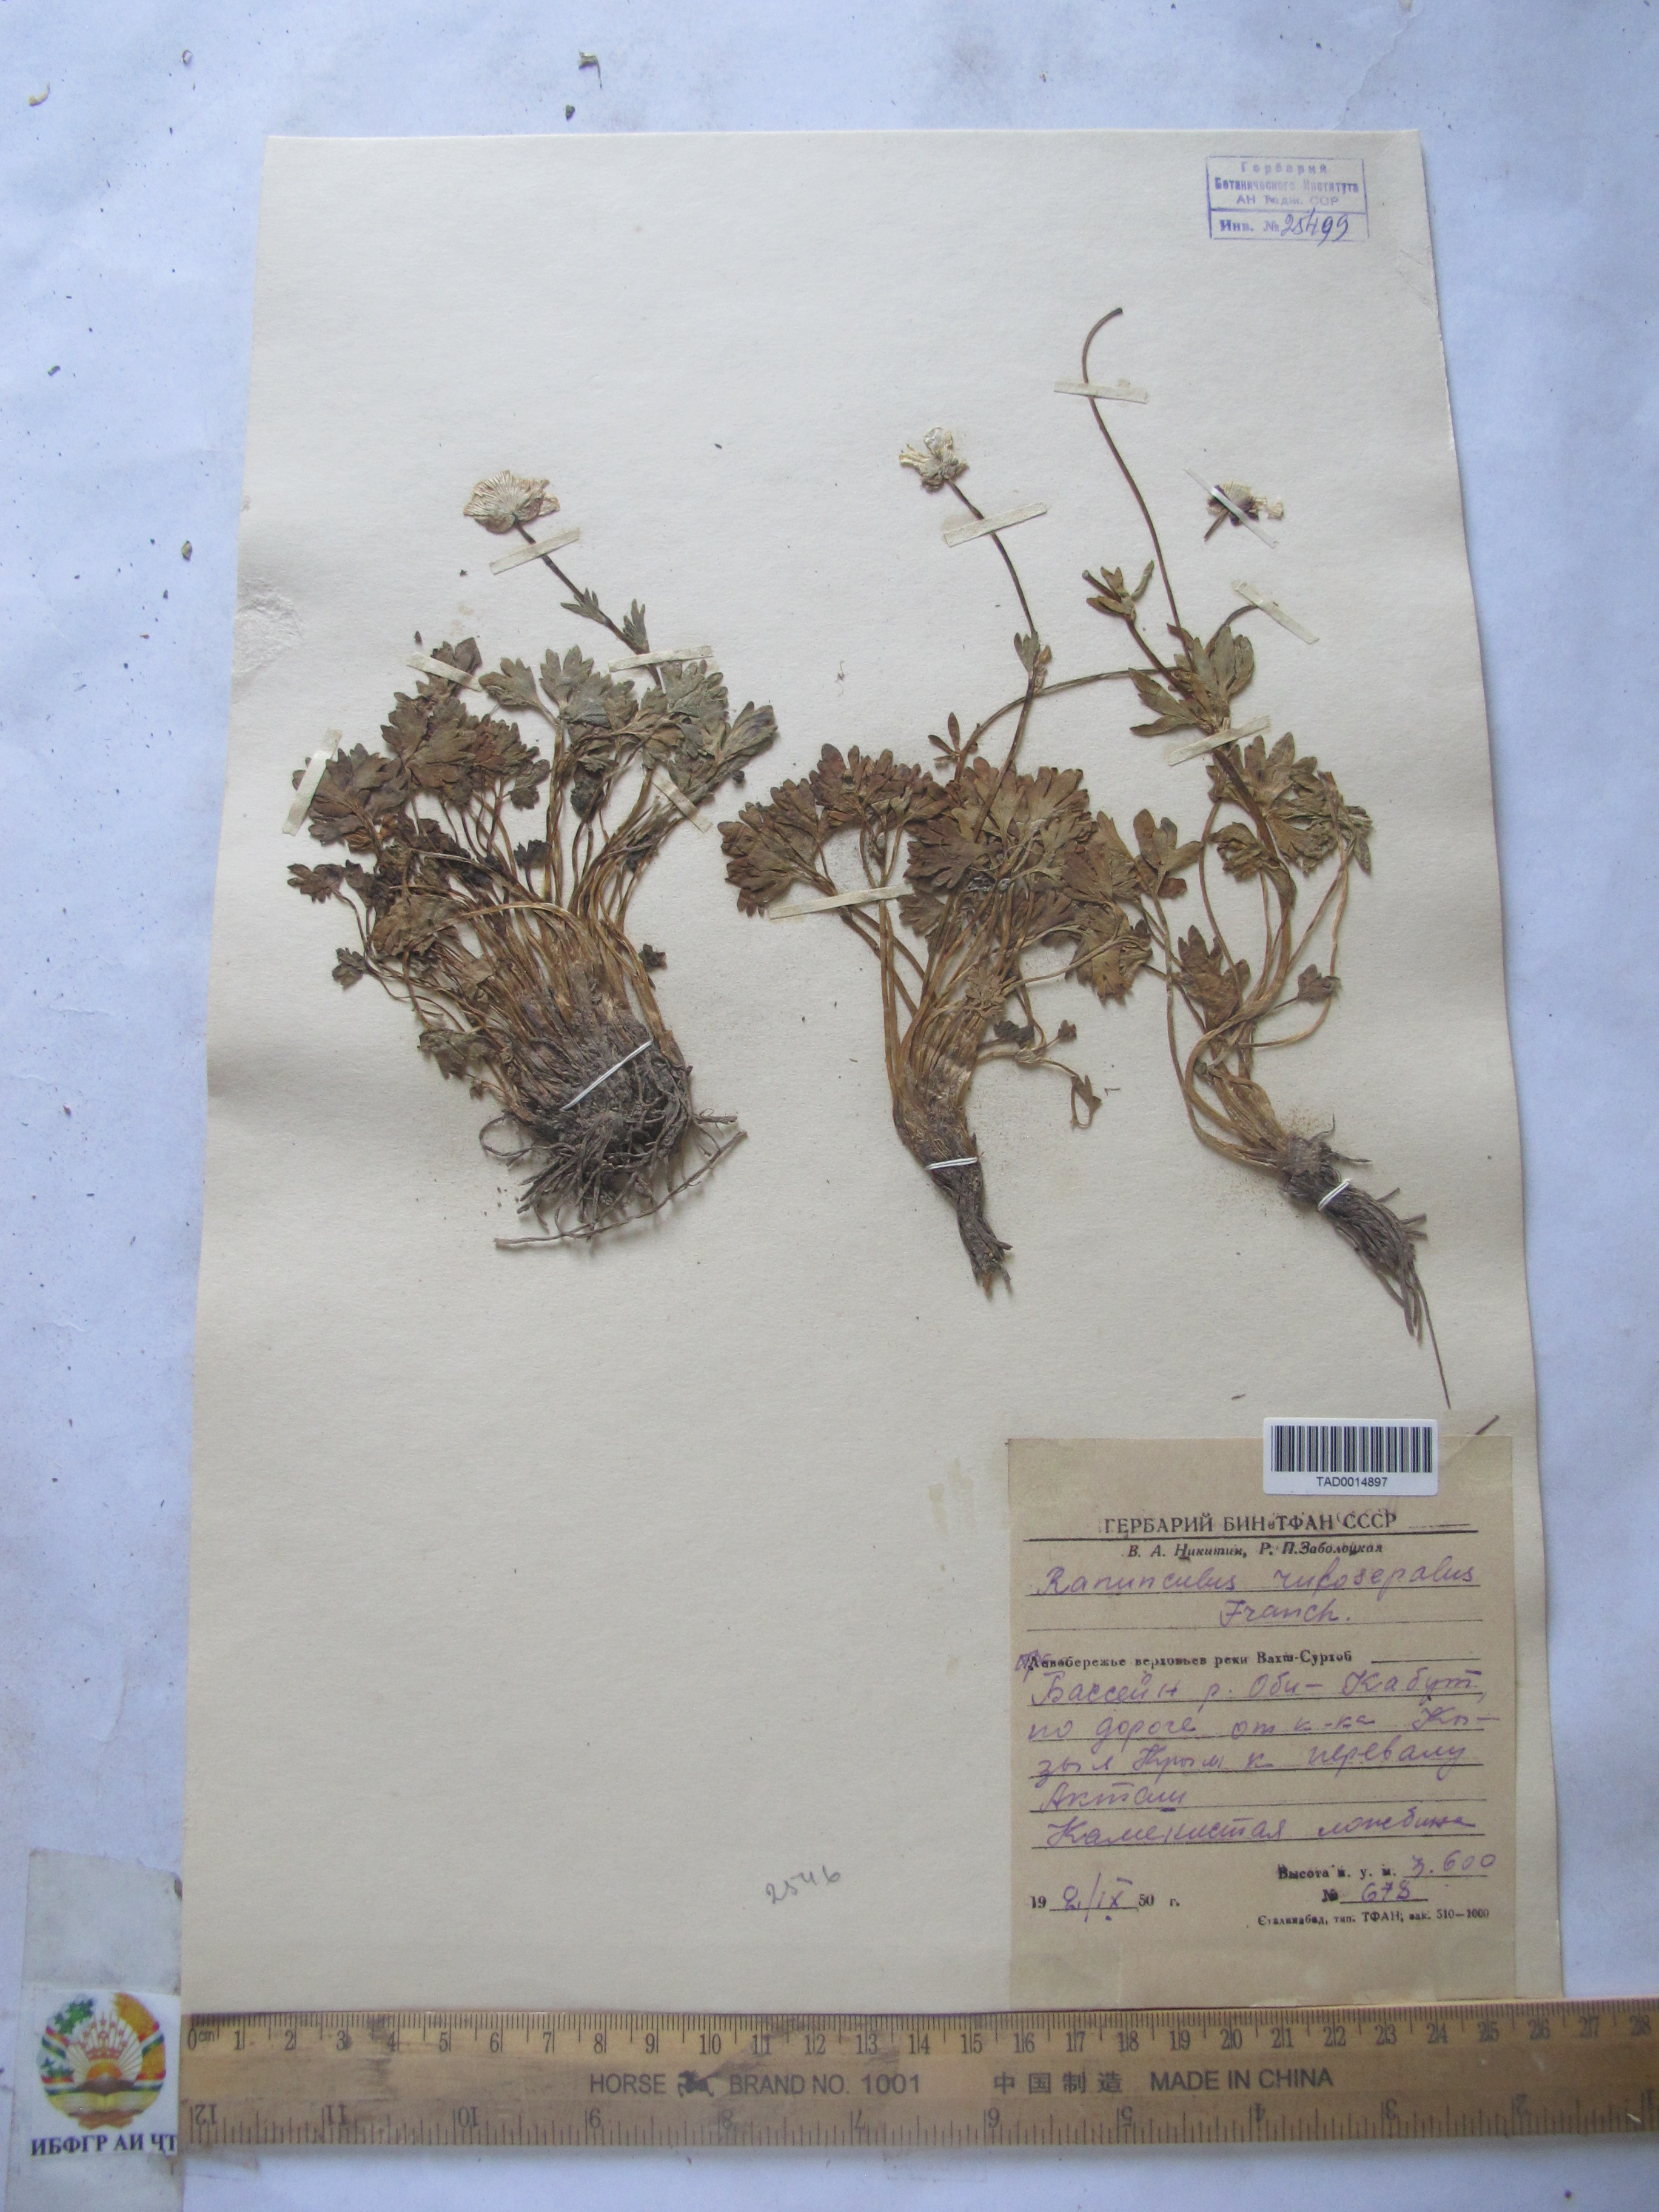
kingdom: Plantae
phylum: Tracheophyta
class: Magnoliopsida
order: Ranunculales
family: Ranunculaceae
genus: Ranunculus
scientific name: Ranunculus rufosepalus
